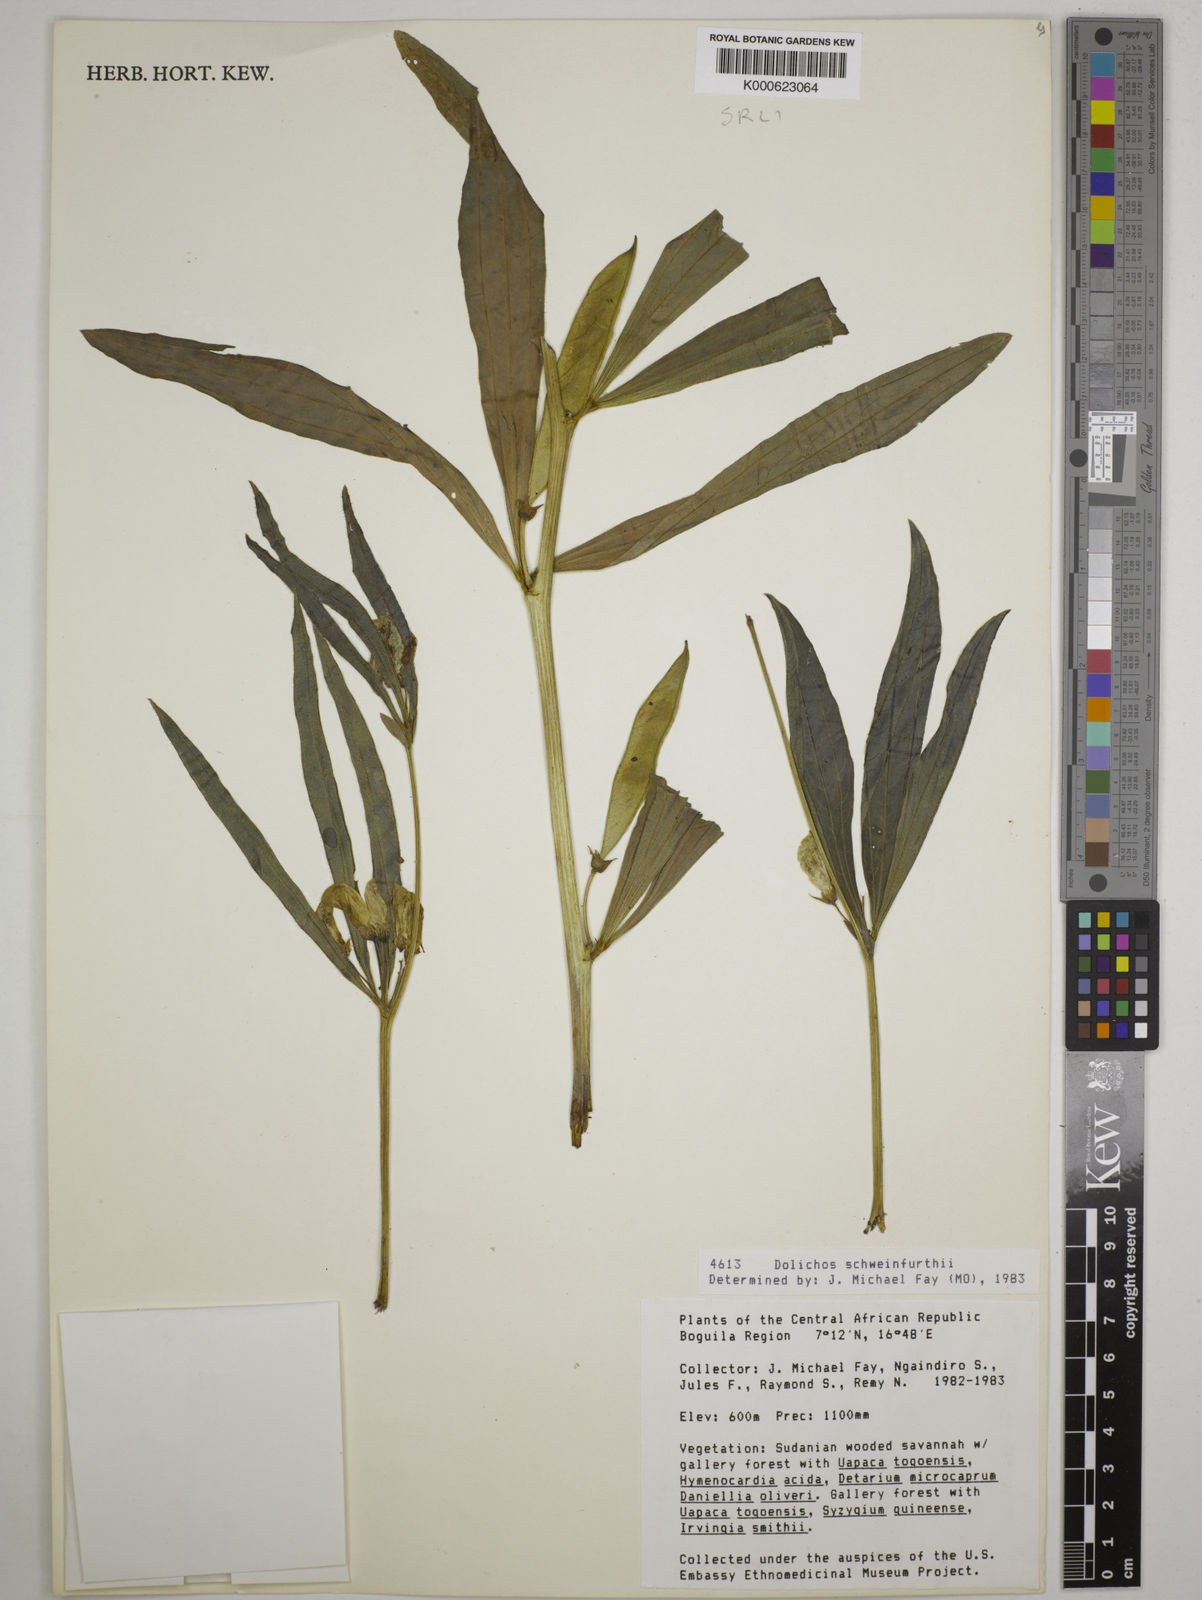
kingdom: Plantae
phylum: Tracheophyta
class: Magnoliopsida
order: Fabales
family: Fabaceae
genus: Dolichos
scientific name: Dolichos
